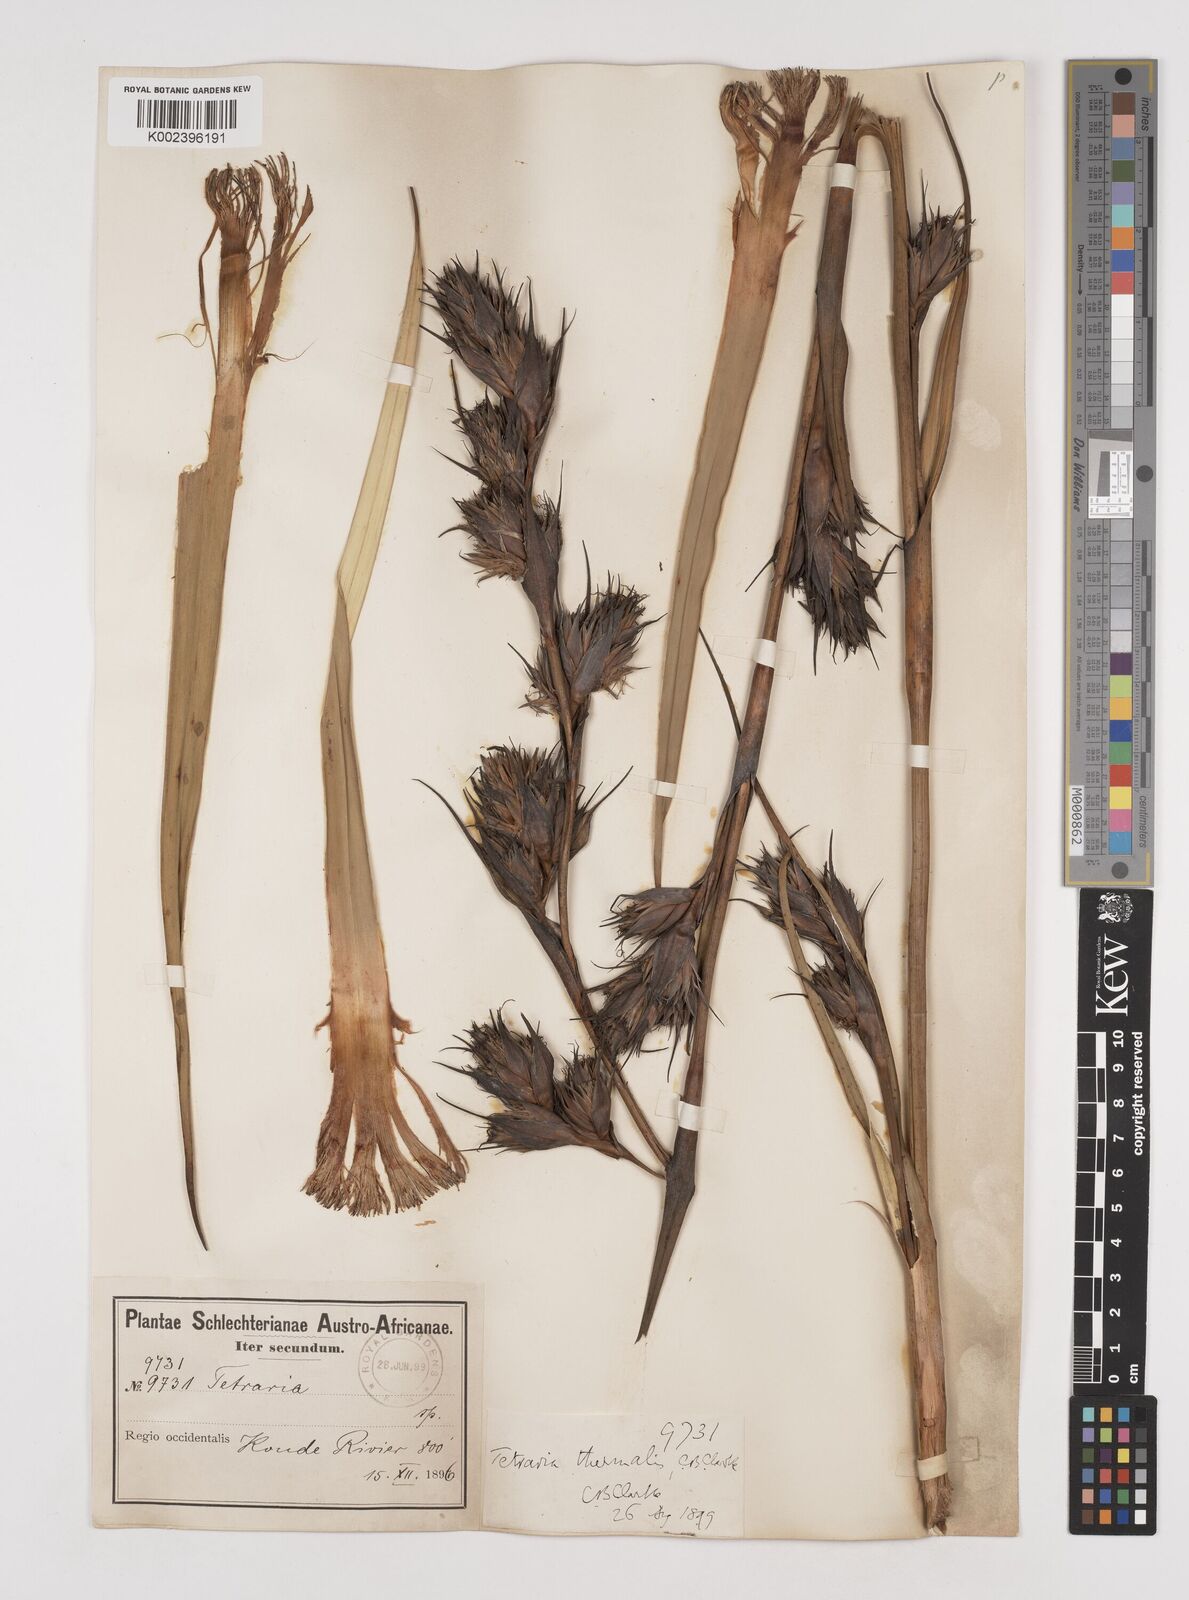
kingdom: Plantae
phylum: Tracheophyta
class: Liliopsida
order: Poales
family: Cyperaceae
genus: Tetraria
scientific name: Tetraria thermalis
